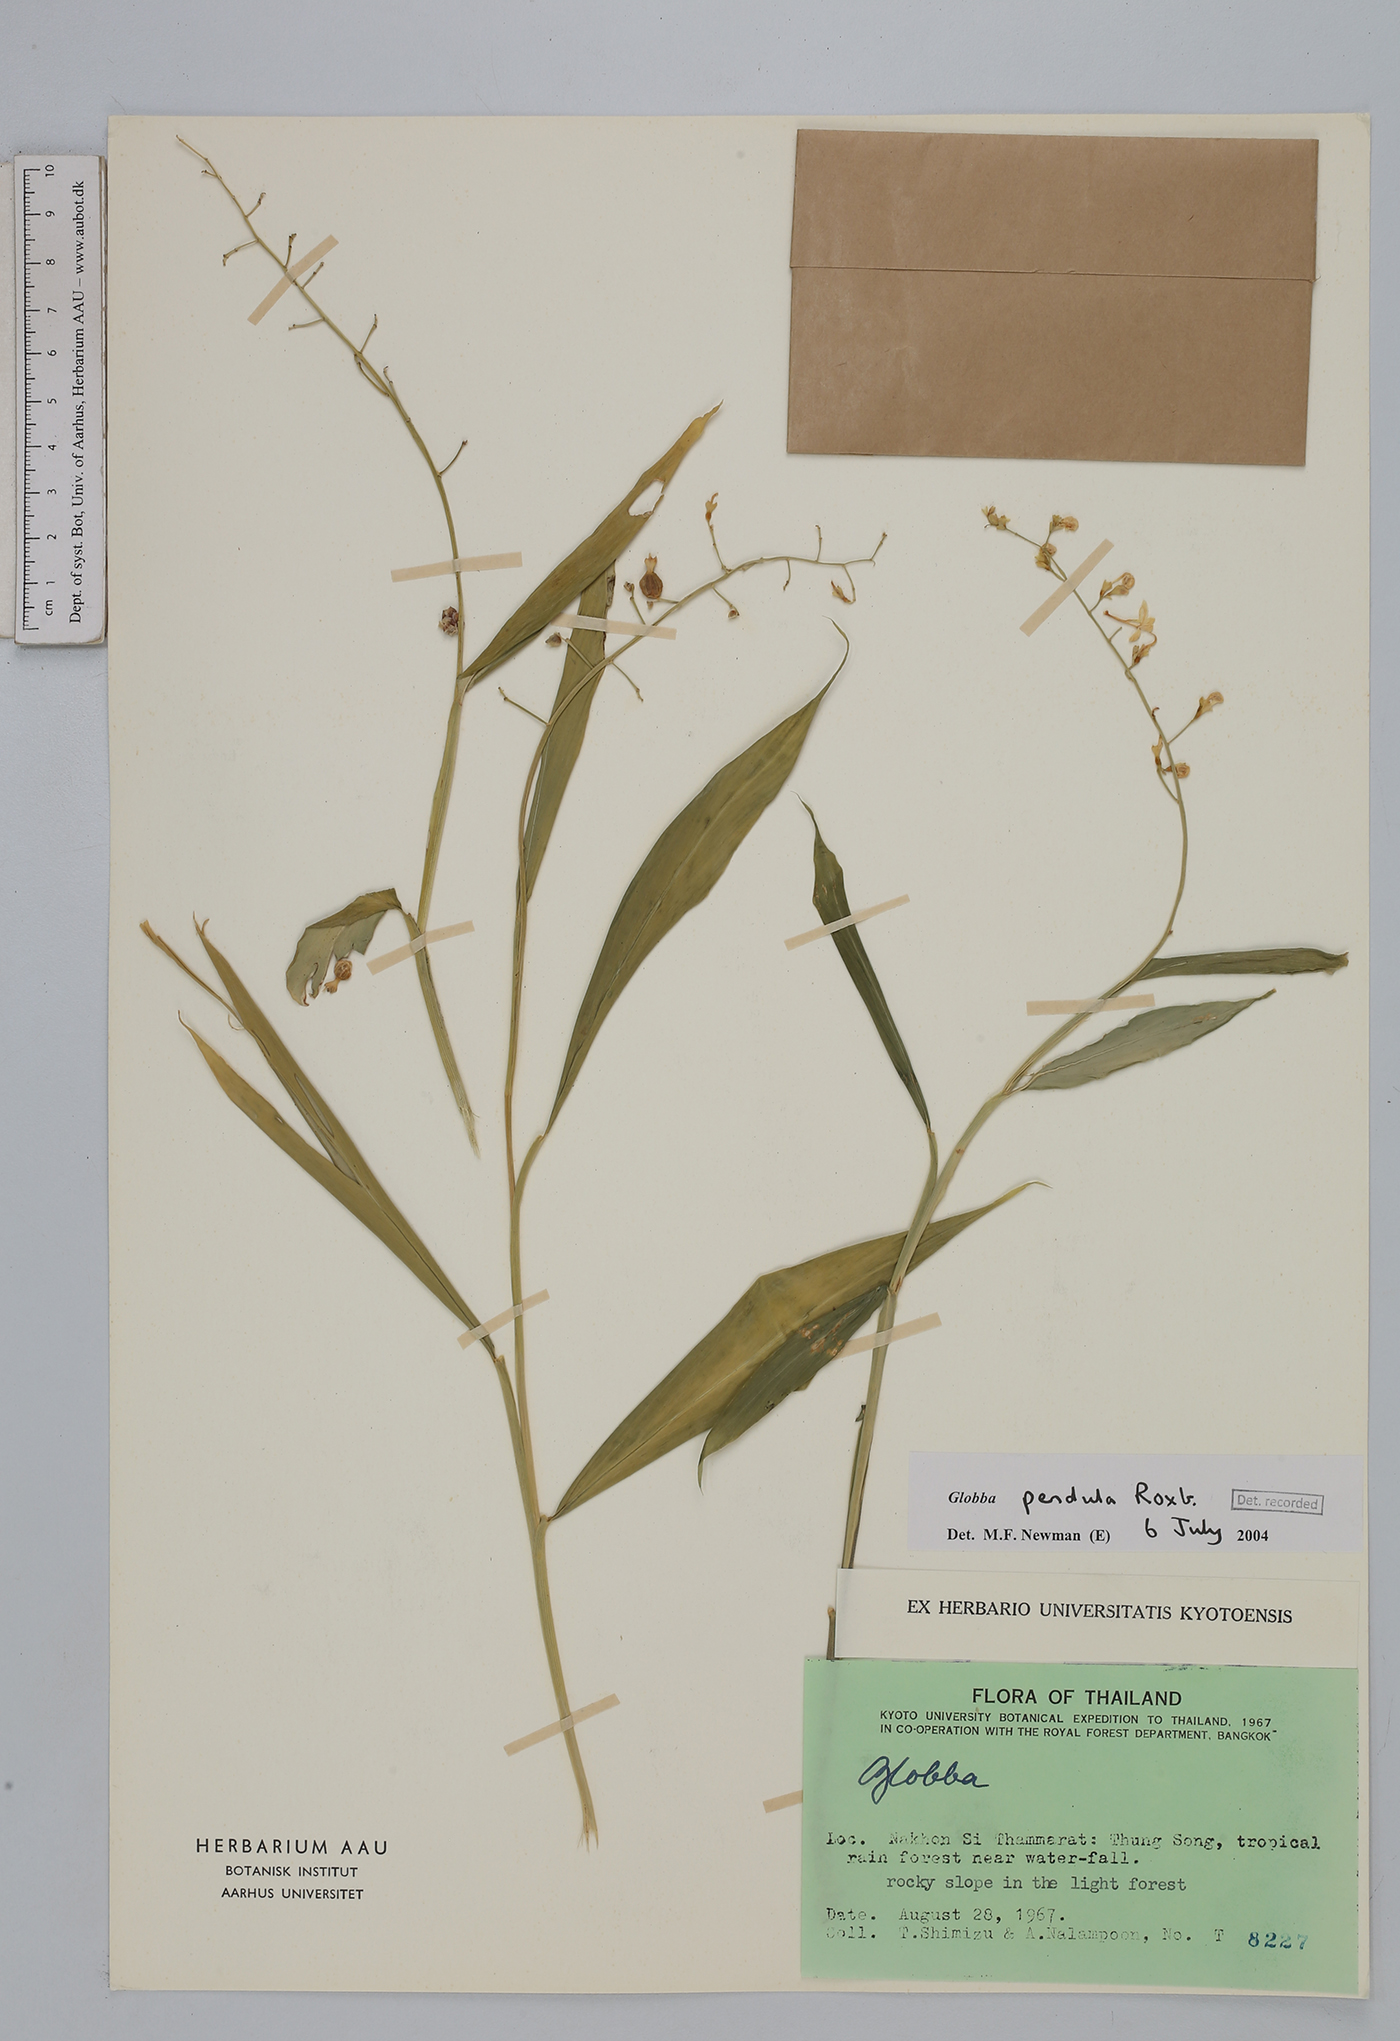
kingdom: Plantae
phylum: Tracheophyta
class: Liliopsida
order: Zingiberales
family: Zingiberaceae
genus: Globba
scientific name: Globba pendula
